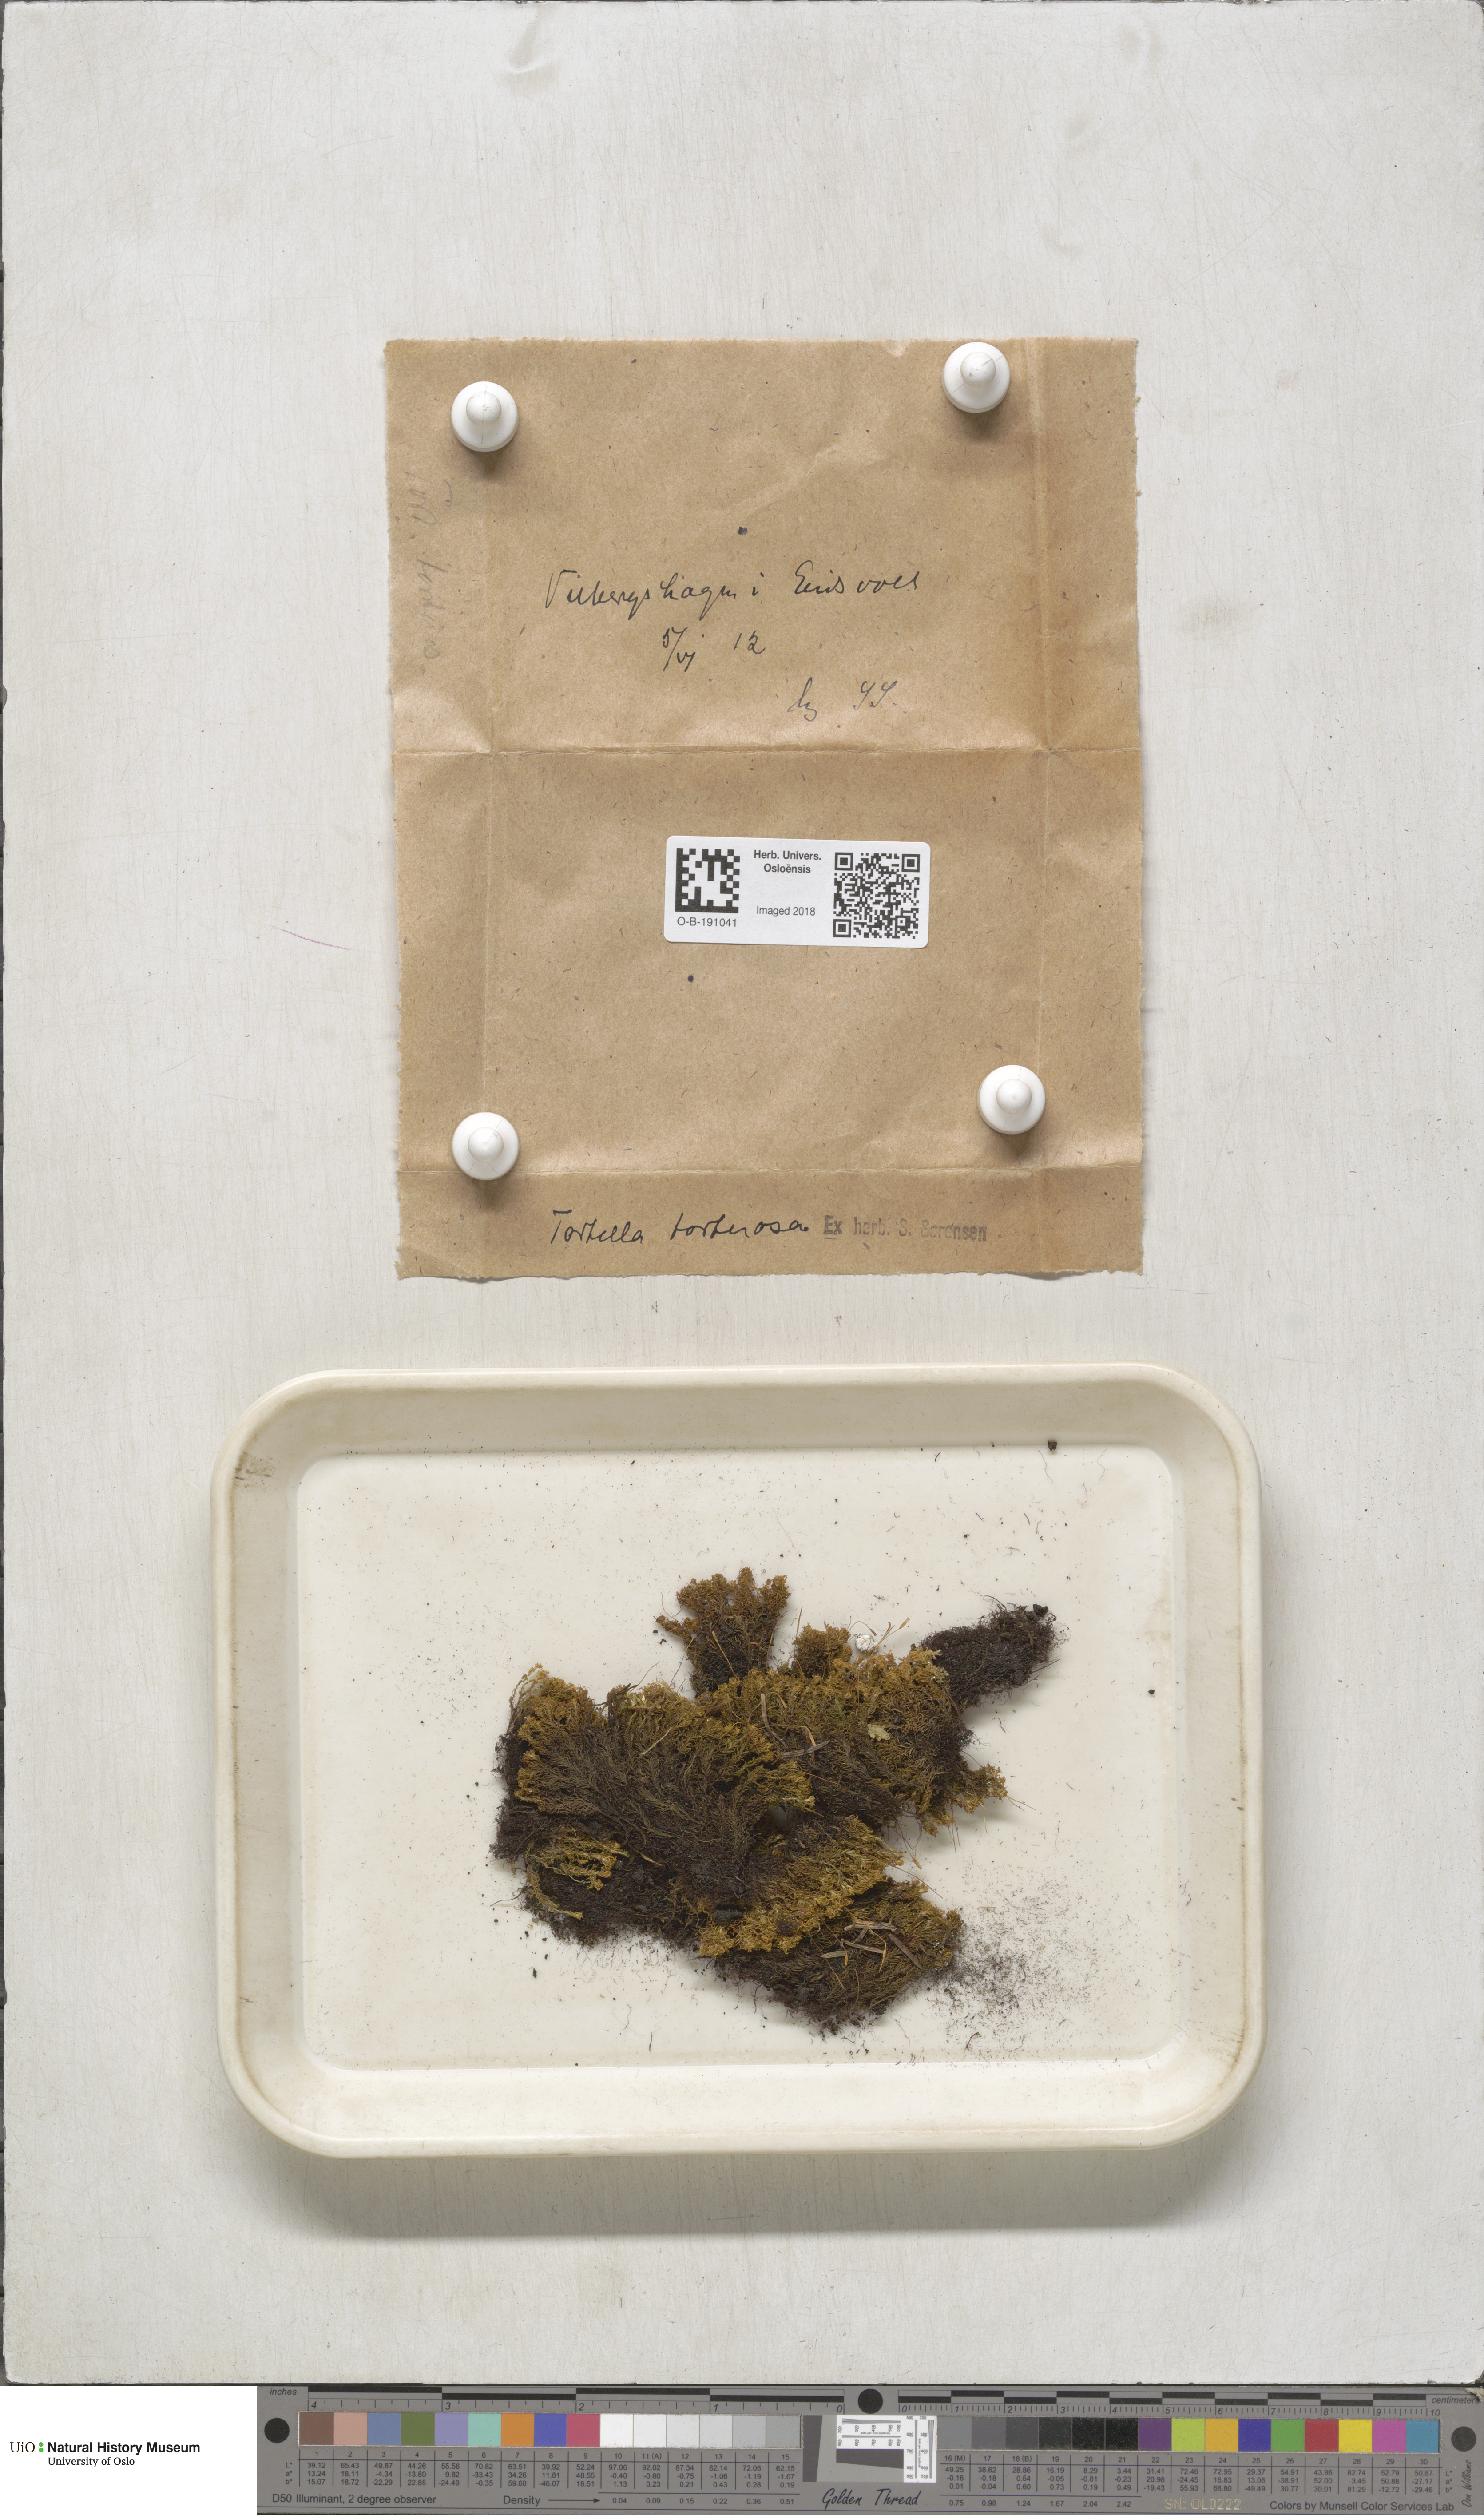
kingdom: Plantae
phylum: Bryophyta
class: Bryopsida
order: Pottiales
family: Pottiaceae
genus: Tortella
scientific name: Tortella tortuosa
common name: Frizzled crisp moss
